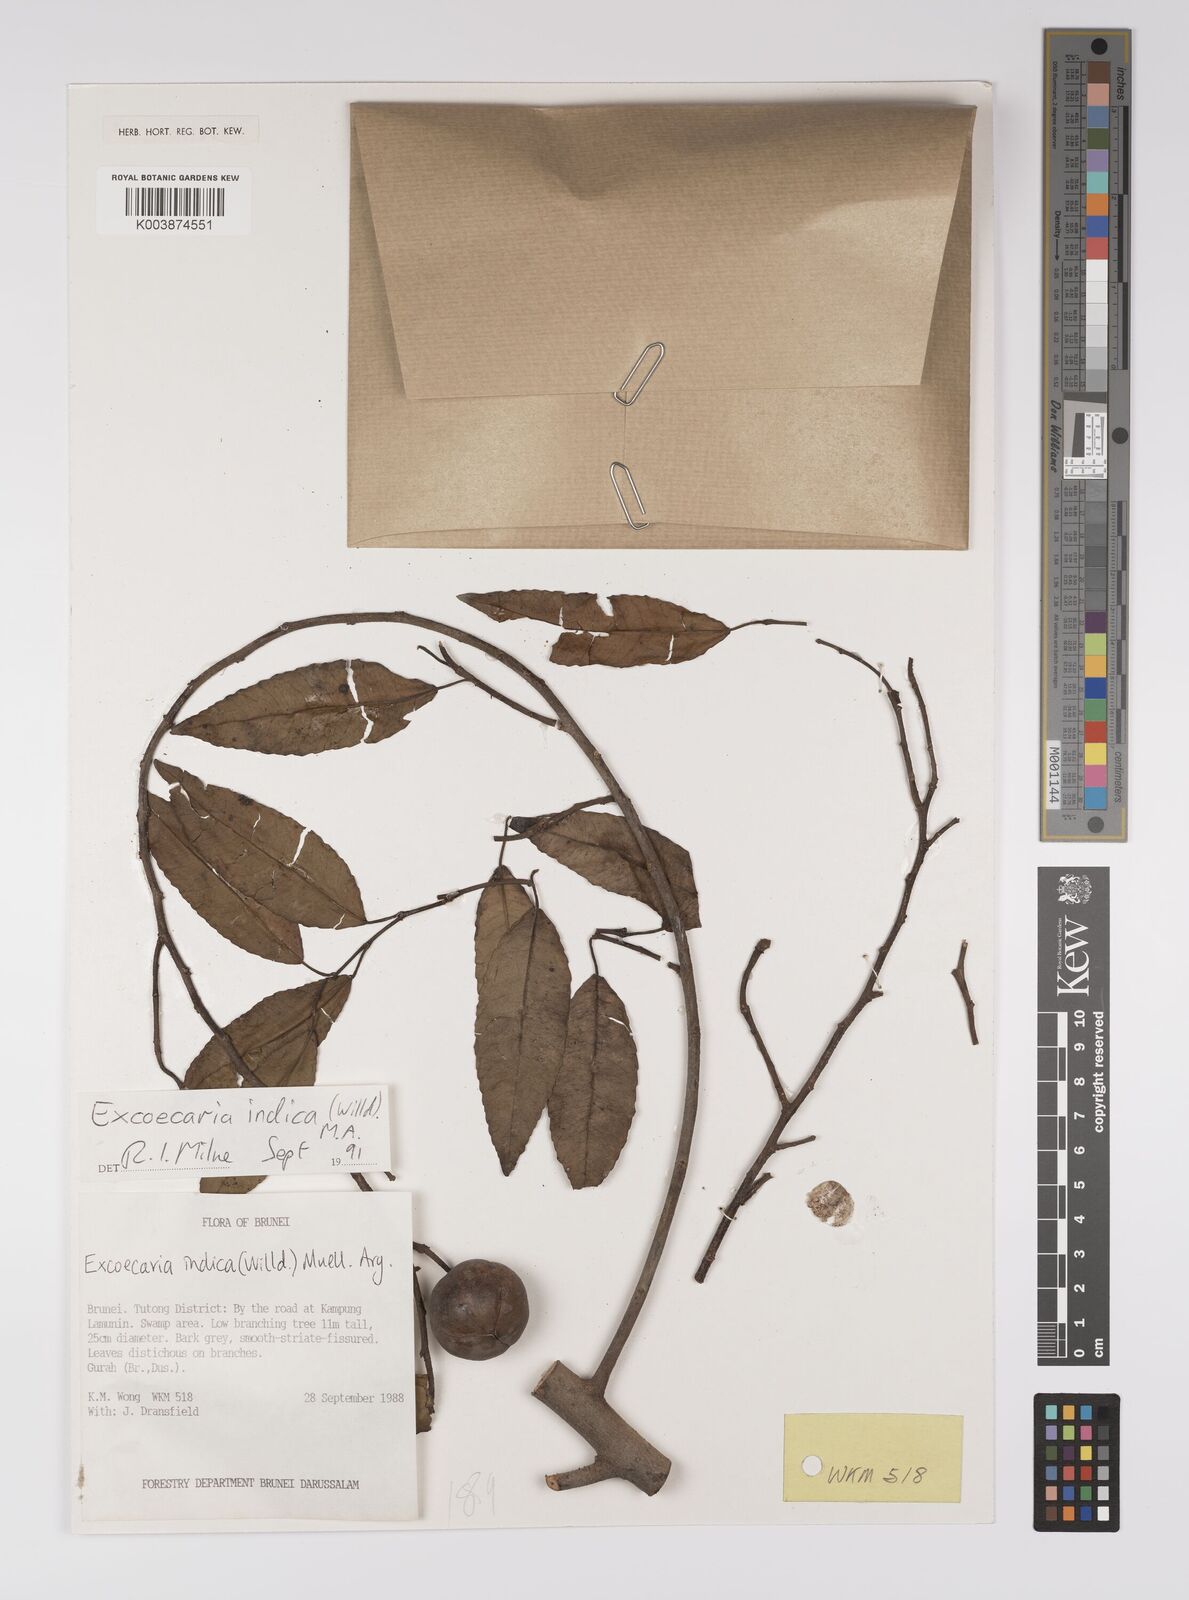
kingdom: Plantae
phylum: Tracheophyta
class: Magnoliopsida
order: Malpighiales
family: Euphorbiaceae
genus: Shirakiopsis
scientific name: Shirakiopsis indica
